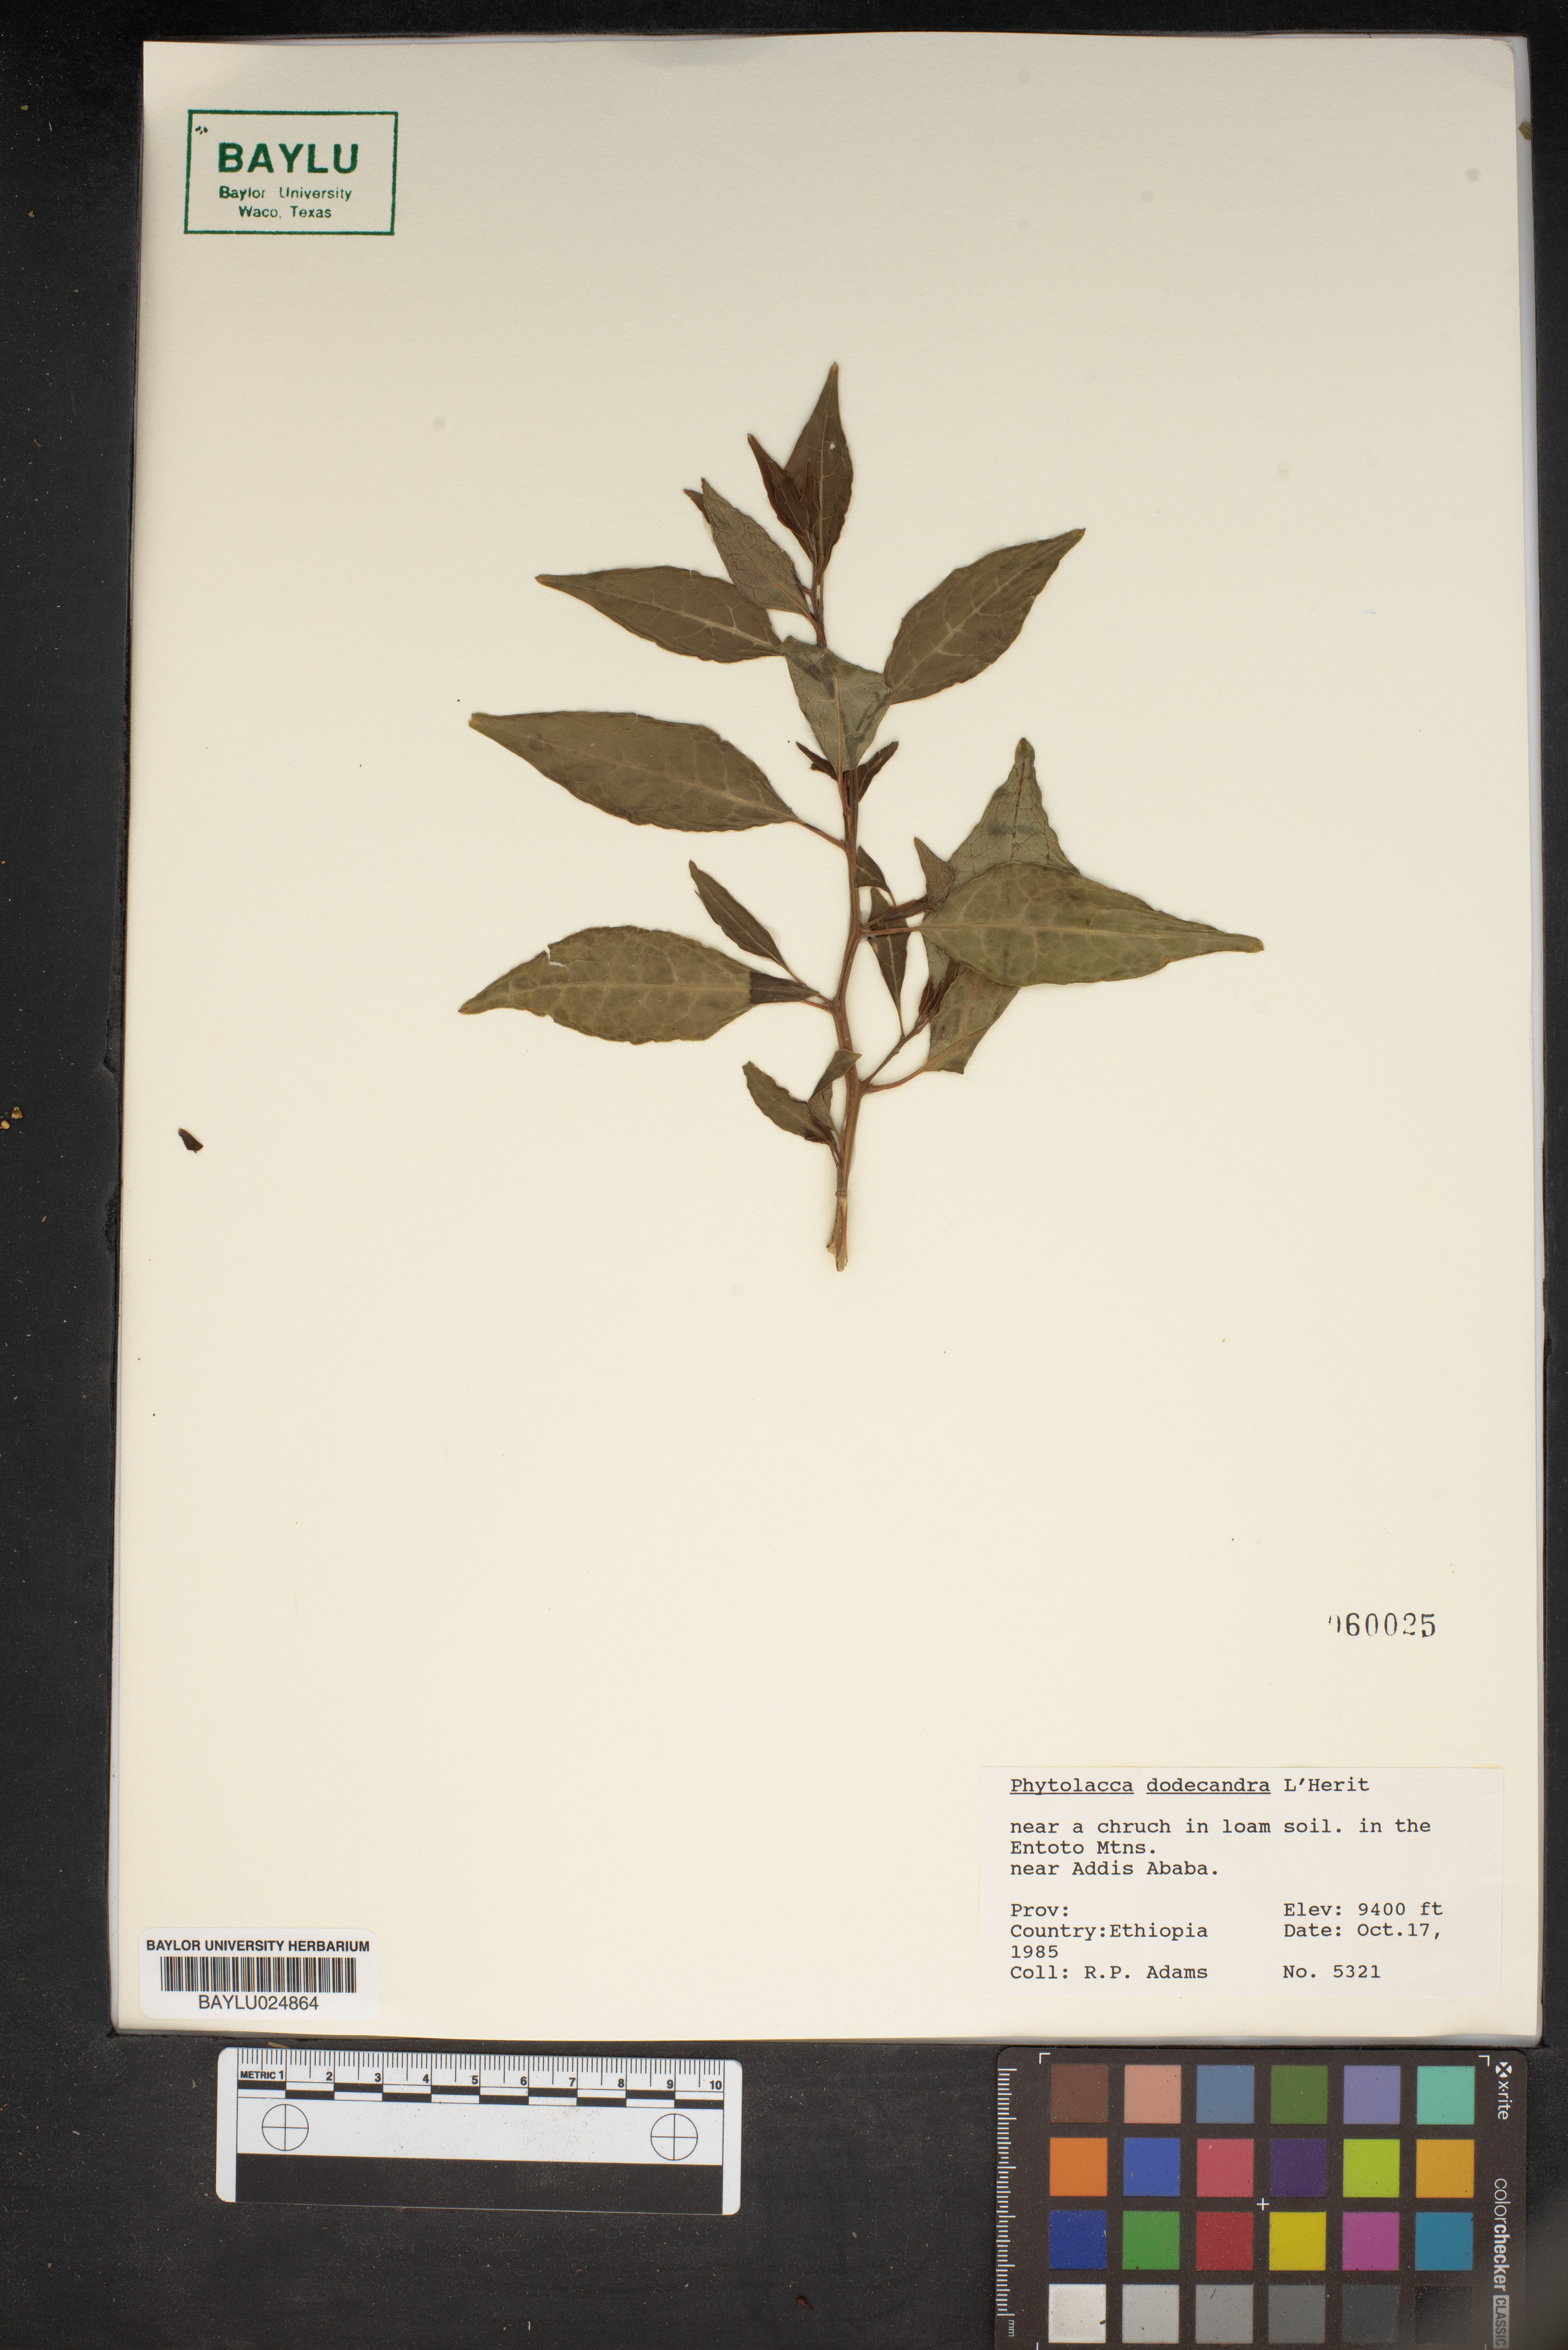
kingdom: Plantae
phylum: Tracheophyta
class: Magnoliopsida
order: Caryophyllales
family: Phytolaccaceae
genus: Phytolacca
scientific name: Phytolacca dodecandra
